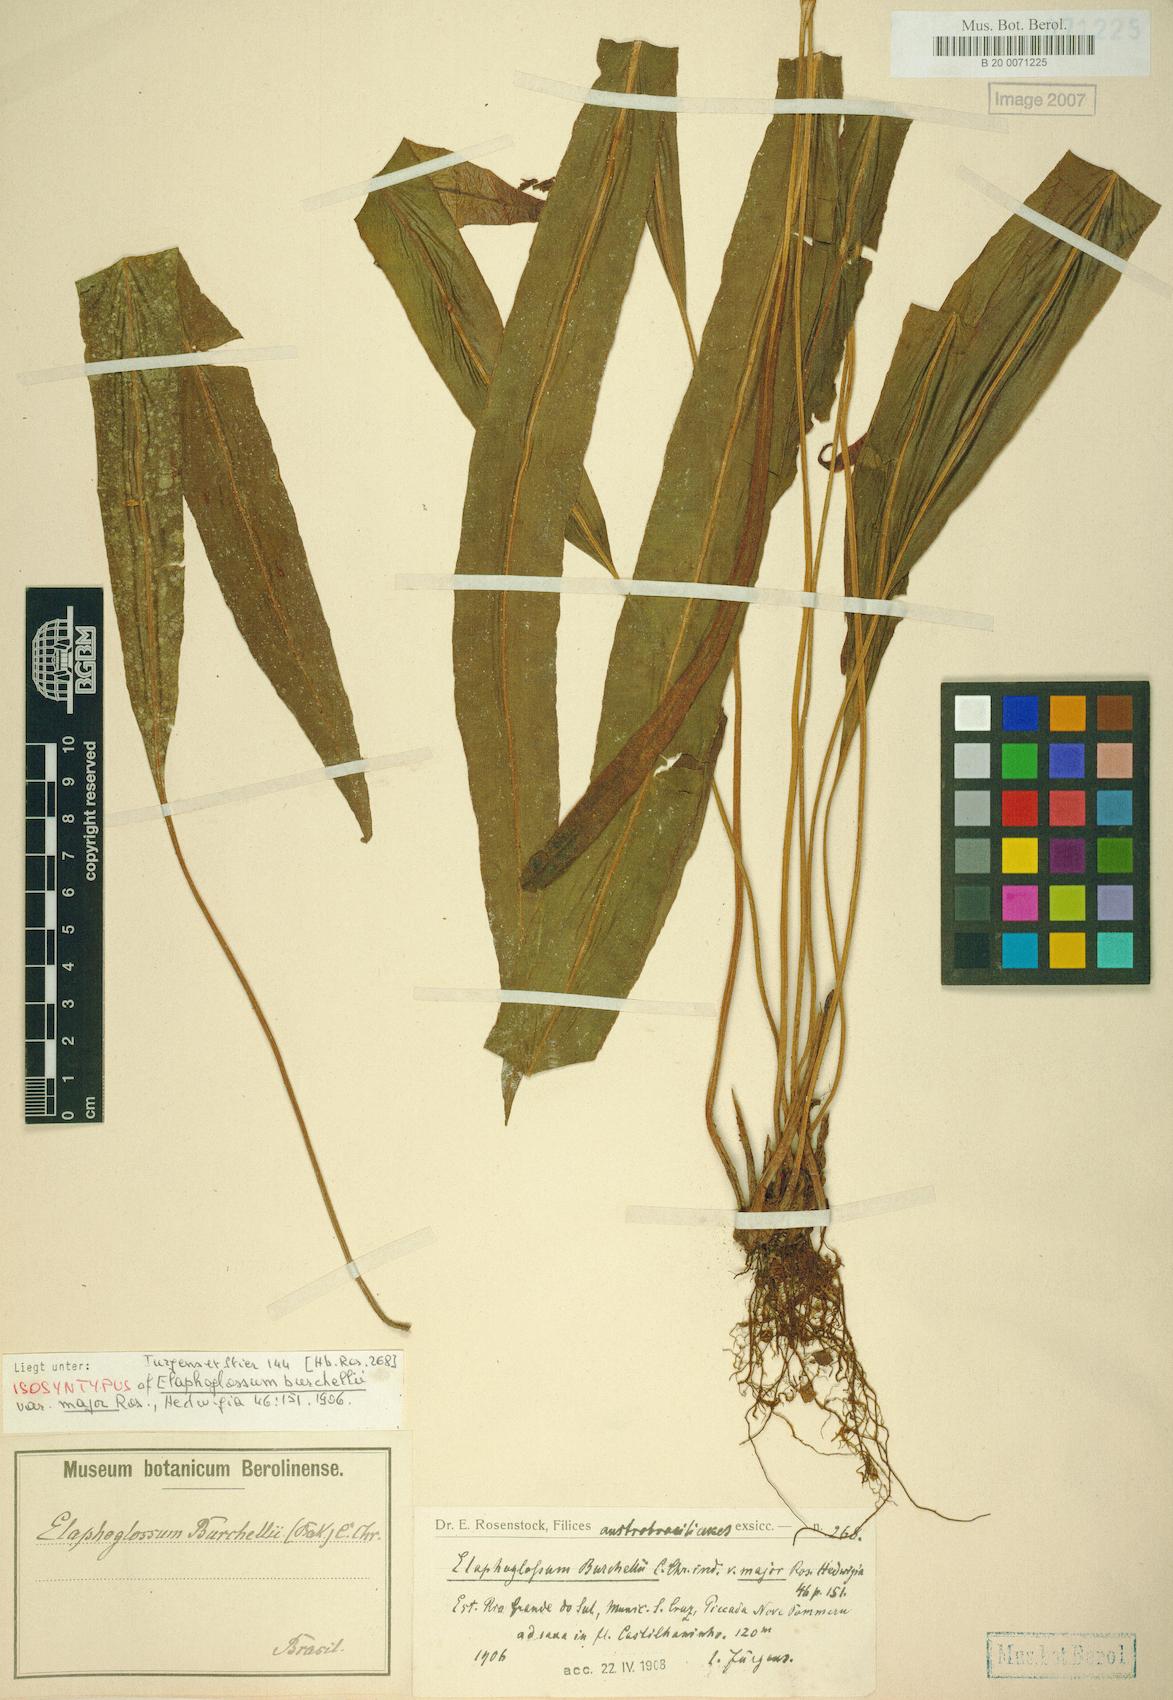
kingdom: Plantae
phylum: Tracheophyta
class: Polypodiopsida
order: Polypodiales
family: Dryopteridaceae
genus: Elaphoglossum
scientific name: Elaphoglossum burchellii
